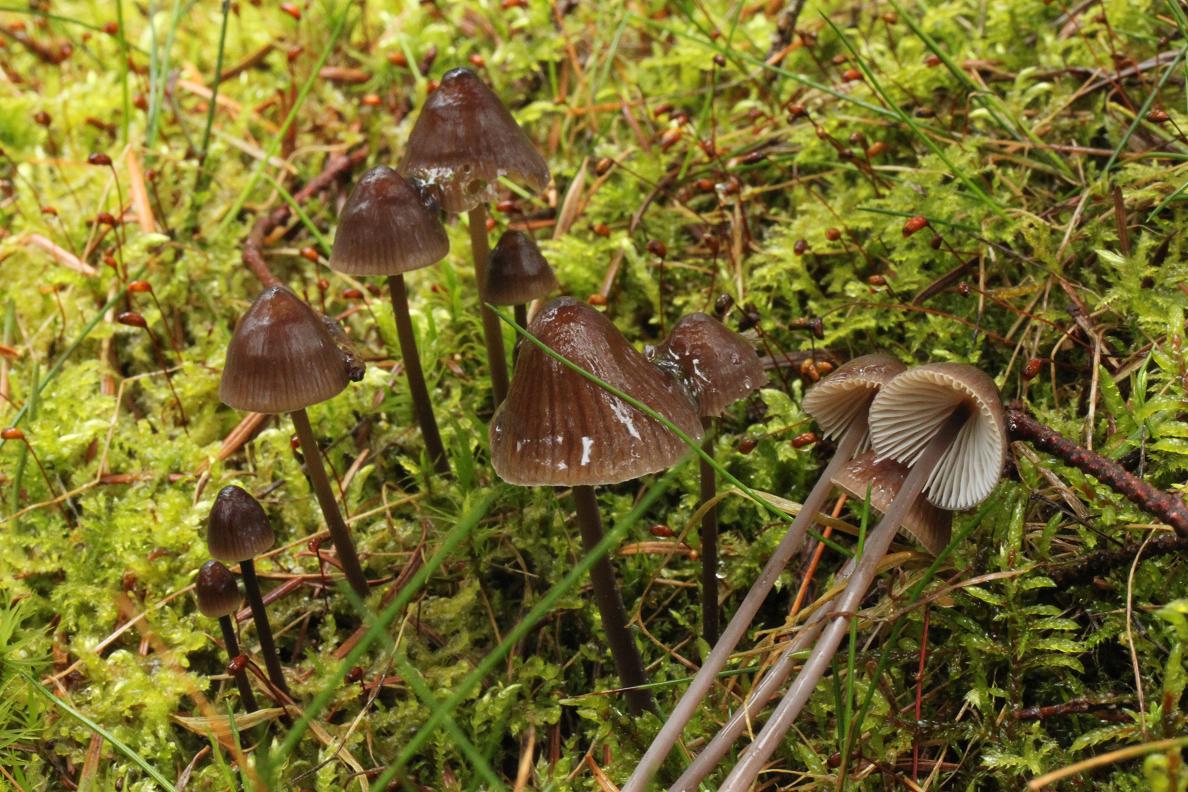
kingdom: Fungi
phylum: Basidiomycota
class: Agaricomycetes
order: Agaricales
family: Mycenaceae
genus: Mycena
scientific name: Mycena silvae-nigrae
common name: tidlig huesvamp
